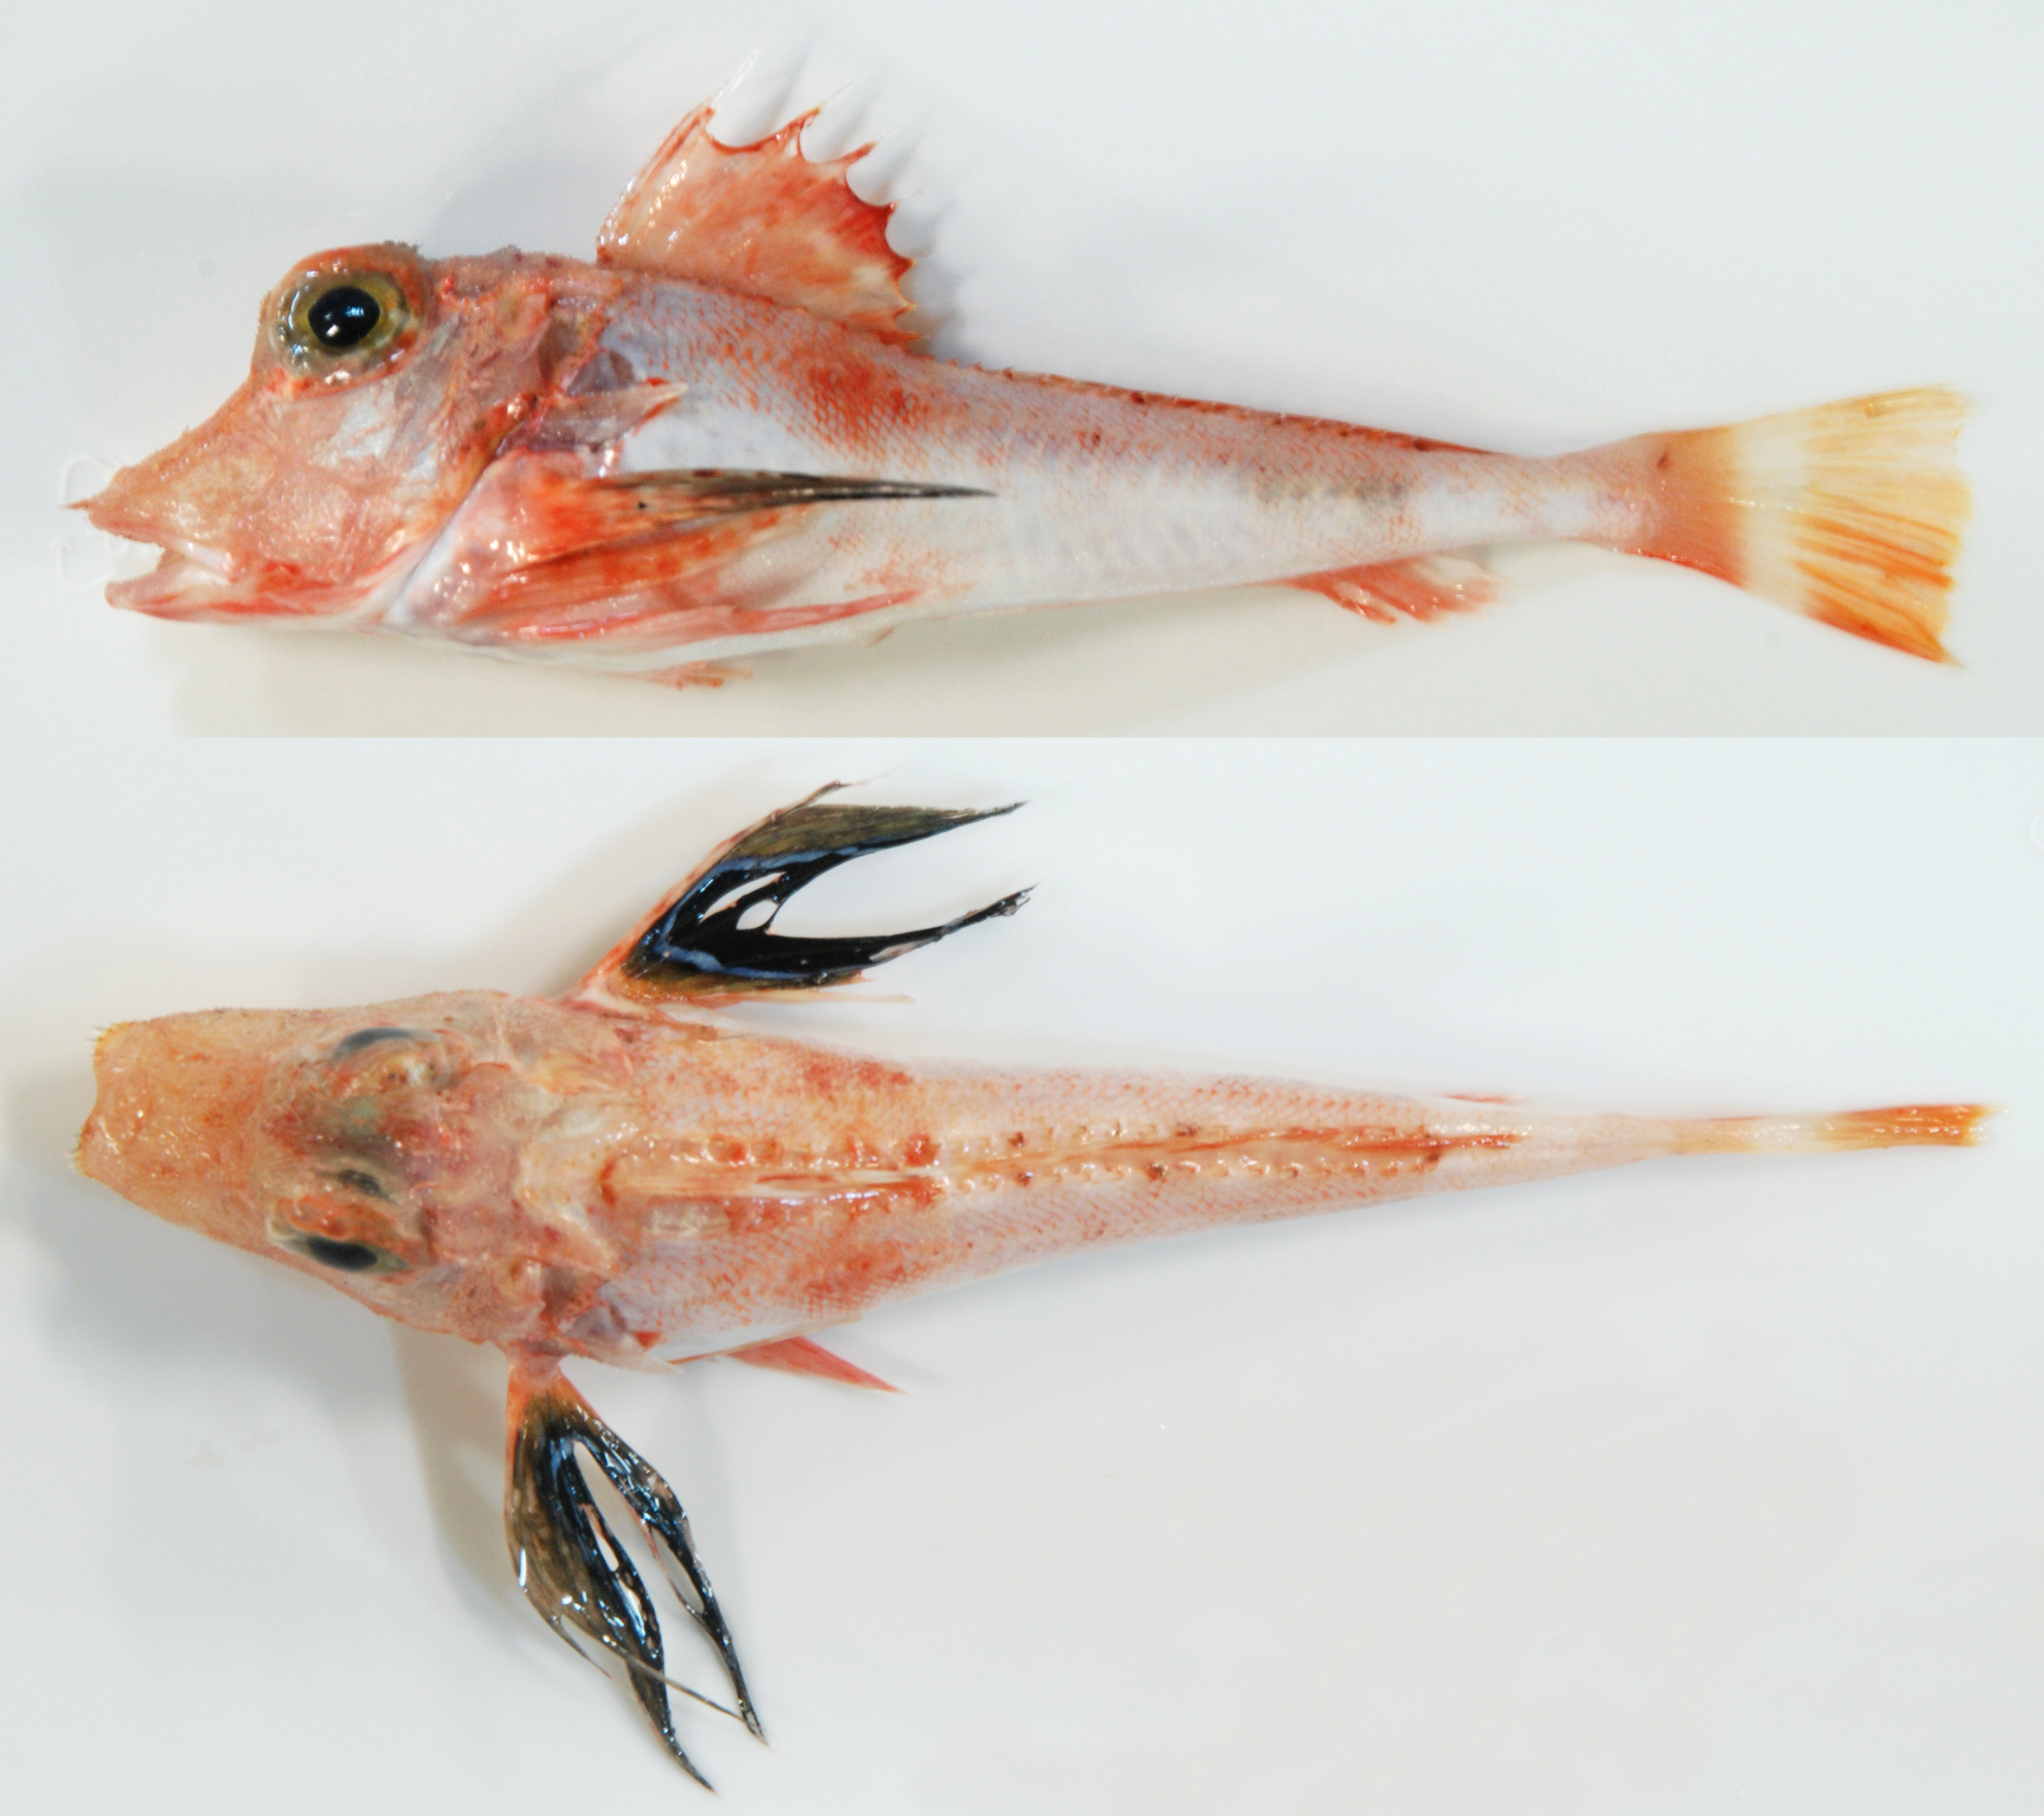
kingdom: Animalia
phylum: Chordata
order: Scorpaeniformes
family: Triglidae
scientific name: Triglidae
